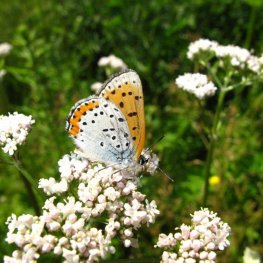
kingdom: Animalia
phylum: Arthropoda
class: Insecta
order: Lepidoptera
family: Sesiidae
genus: Sesia
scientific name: Sesia Lycaena hyllus
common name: Bronze Copper
